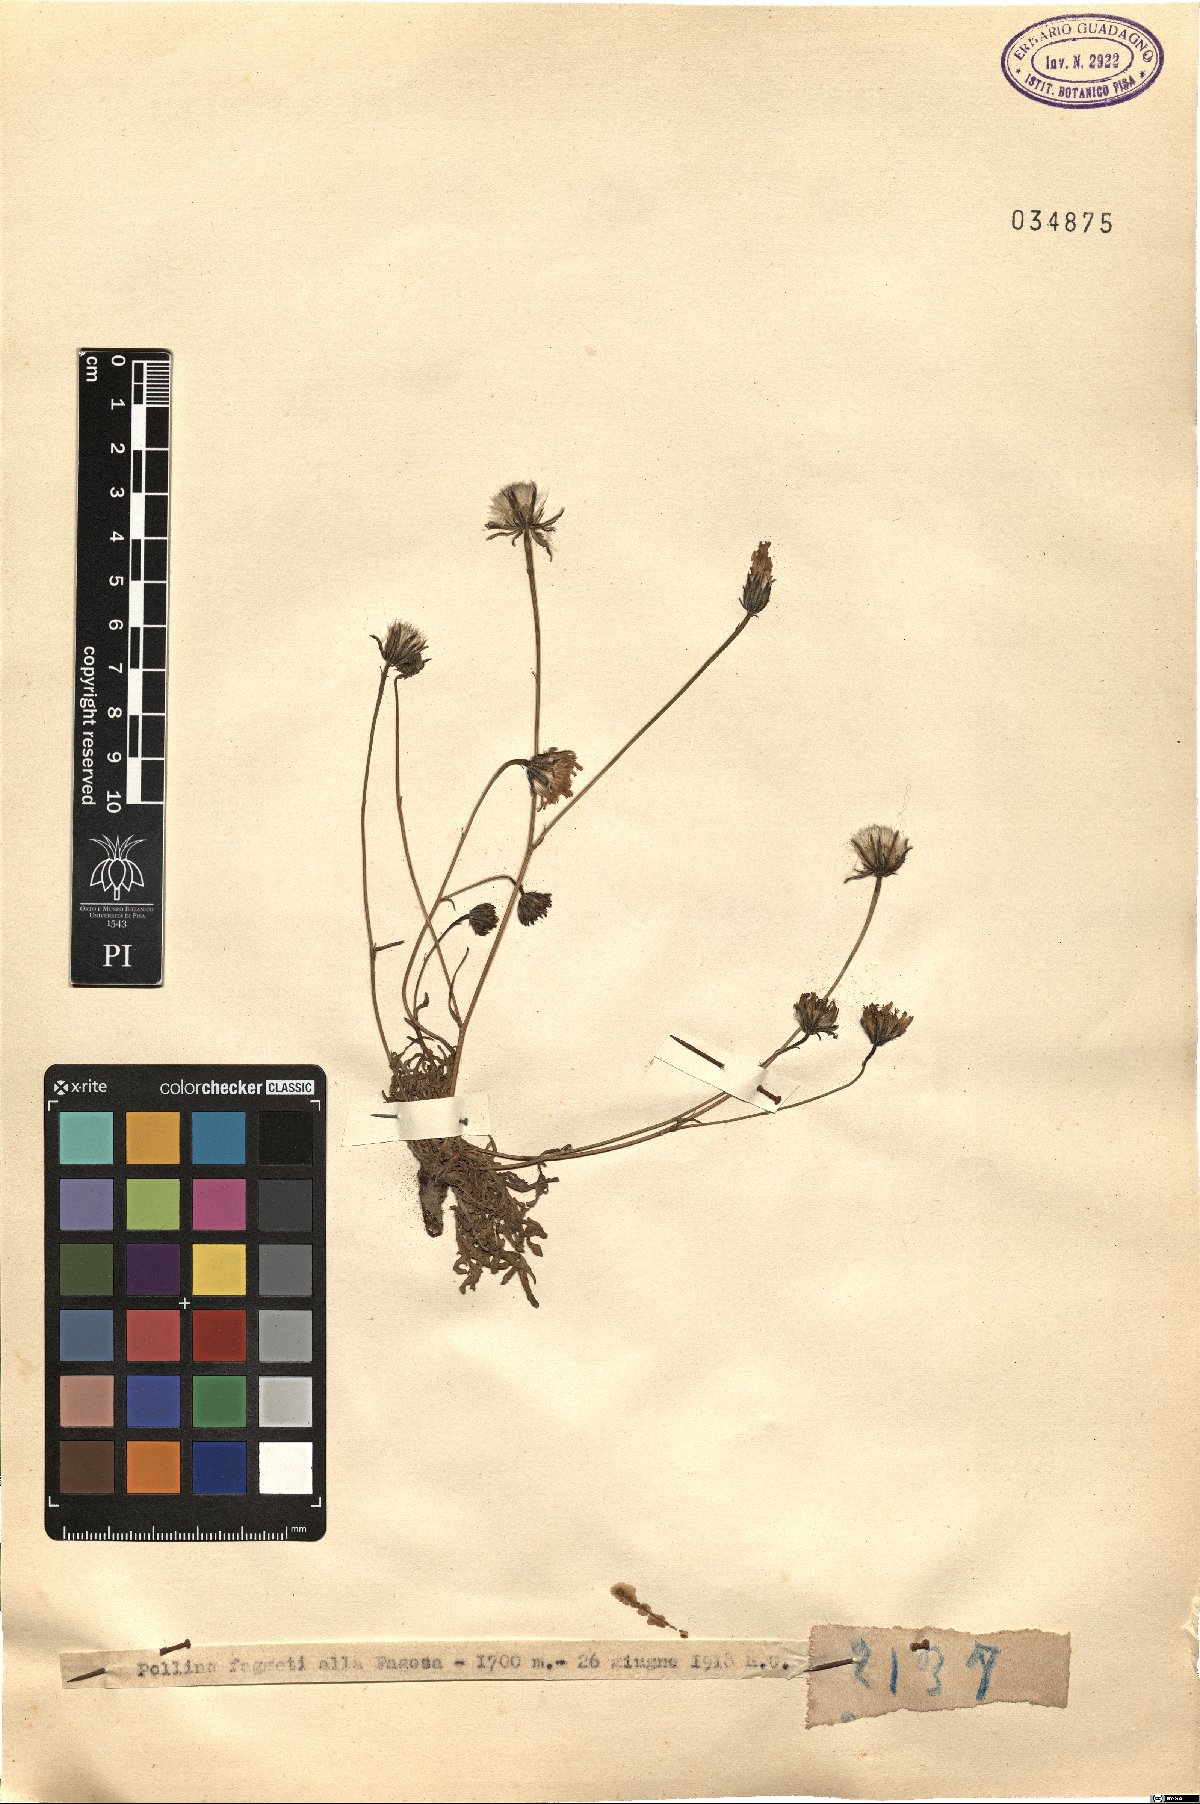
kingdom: Plantae
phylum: Tracheophyta
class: Magnoliopsida
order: Asterales
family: Asteraceae
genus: Hypochaeris
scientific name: Hypochaeris
